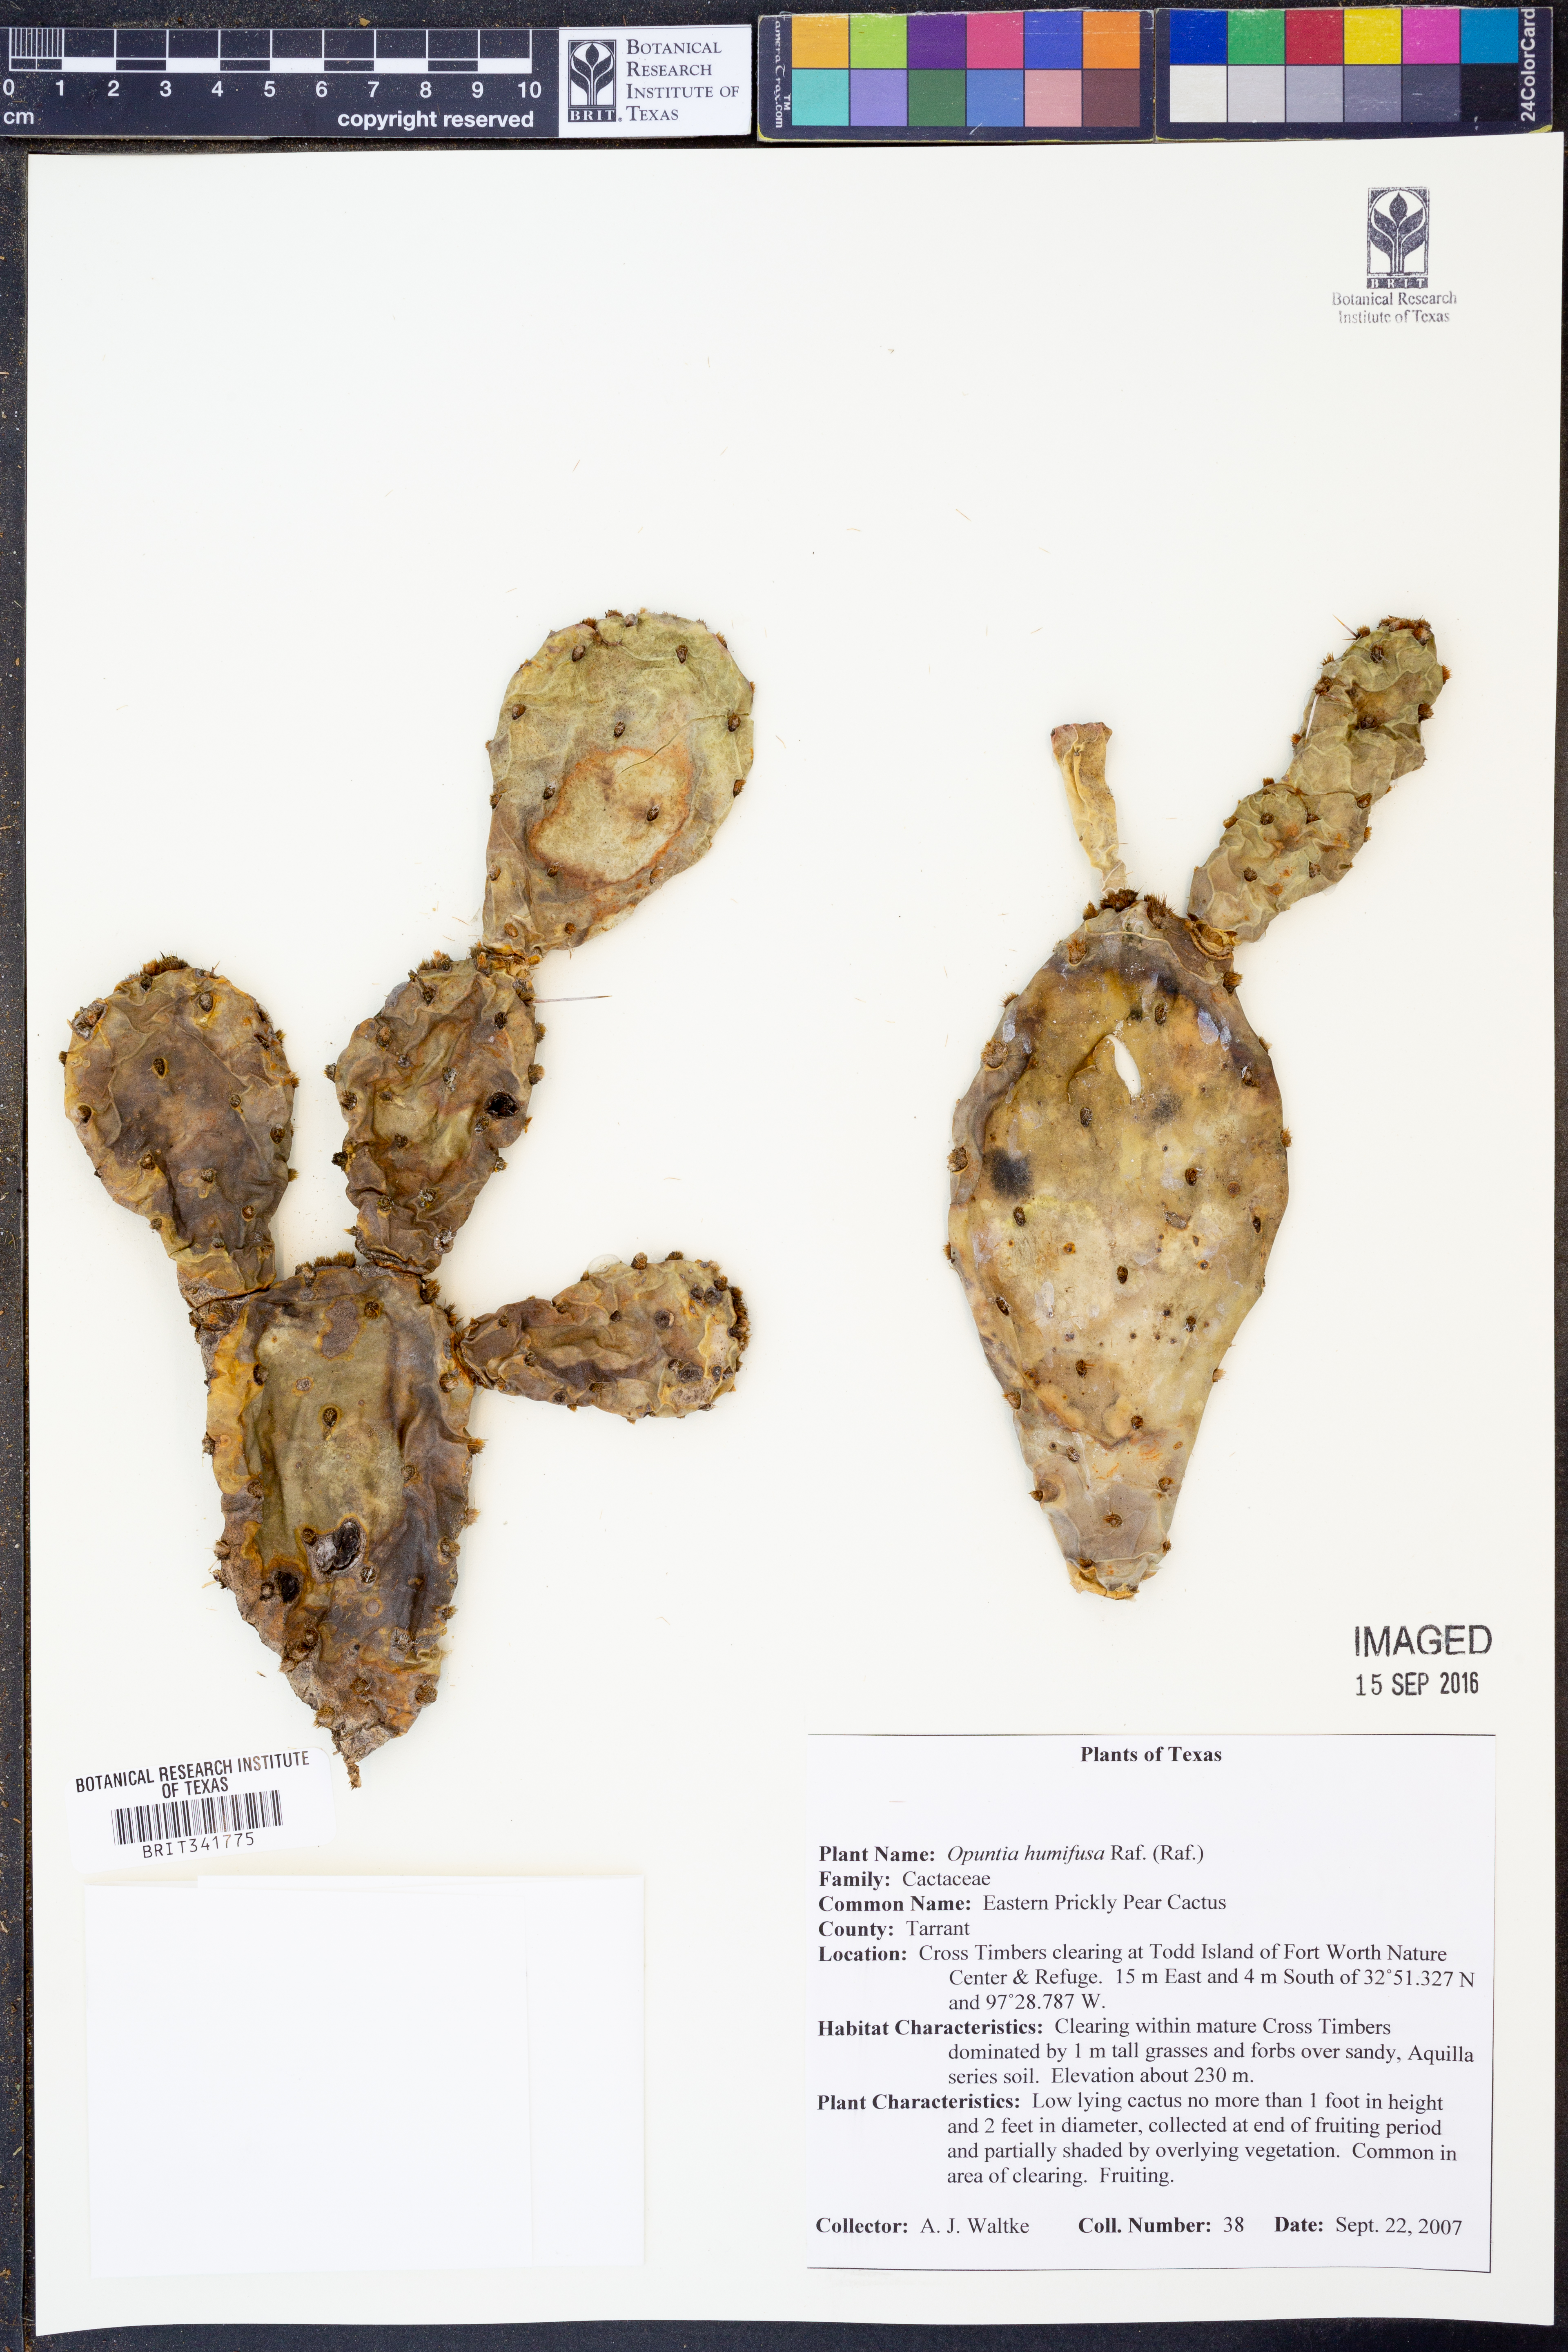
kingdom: Plantae
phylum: Tracheophyta
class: Magnoliopsida
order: Caryophyllales
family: Cactaceae
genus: Opuntia
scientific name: Opuntia macrorhiza
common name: Grassland pricklypear
